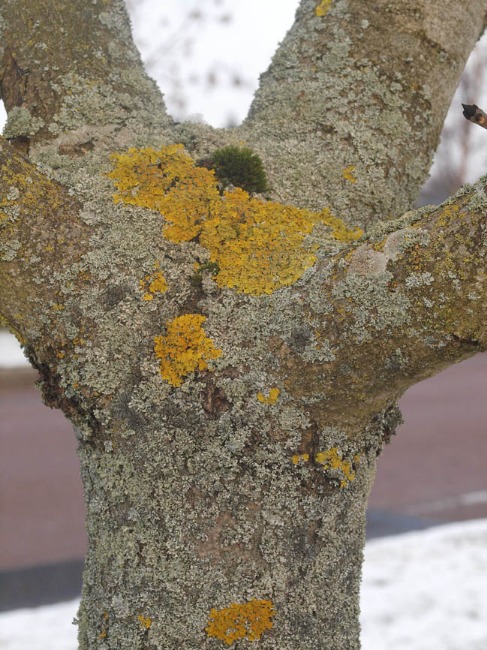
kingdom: Fungi
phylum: Ascomycota
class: Lecanoromycetes
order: Teloschistales
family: Teloschistaceae
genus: Xanthoria
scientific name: Xanthoria parietina
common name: Almindelig væggelav
